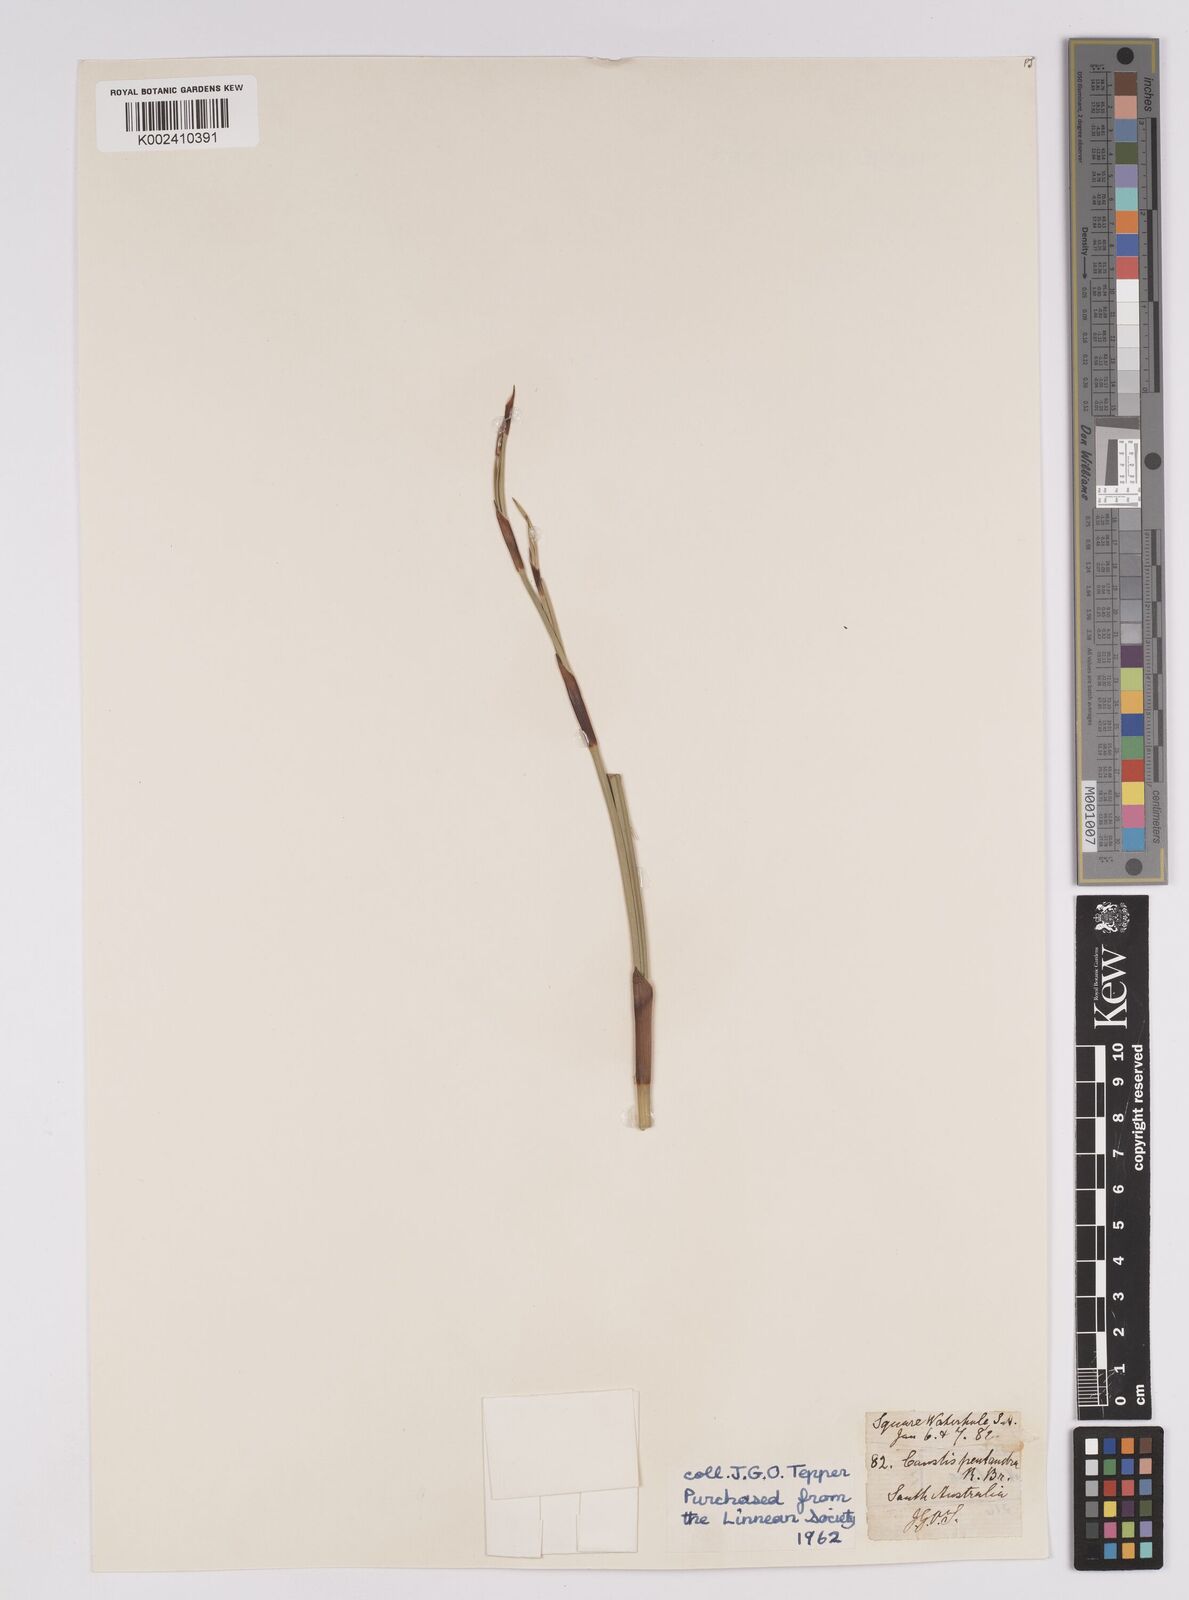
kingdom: Plantae
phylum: Tracheophyta
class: Liliopsida
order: Poales
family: Cyperaceae
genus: Caustis
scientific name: Caustis pentandra
